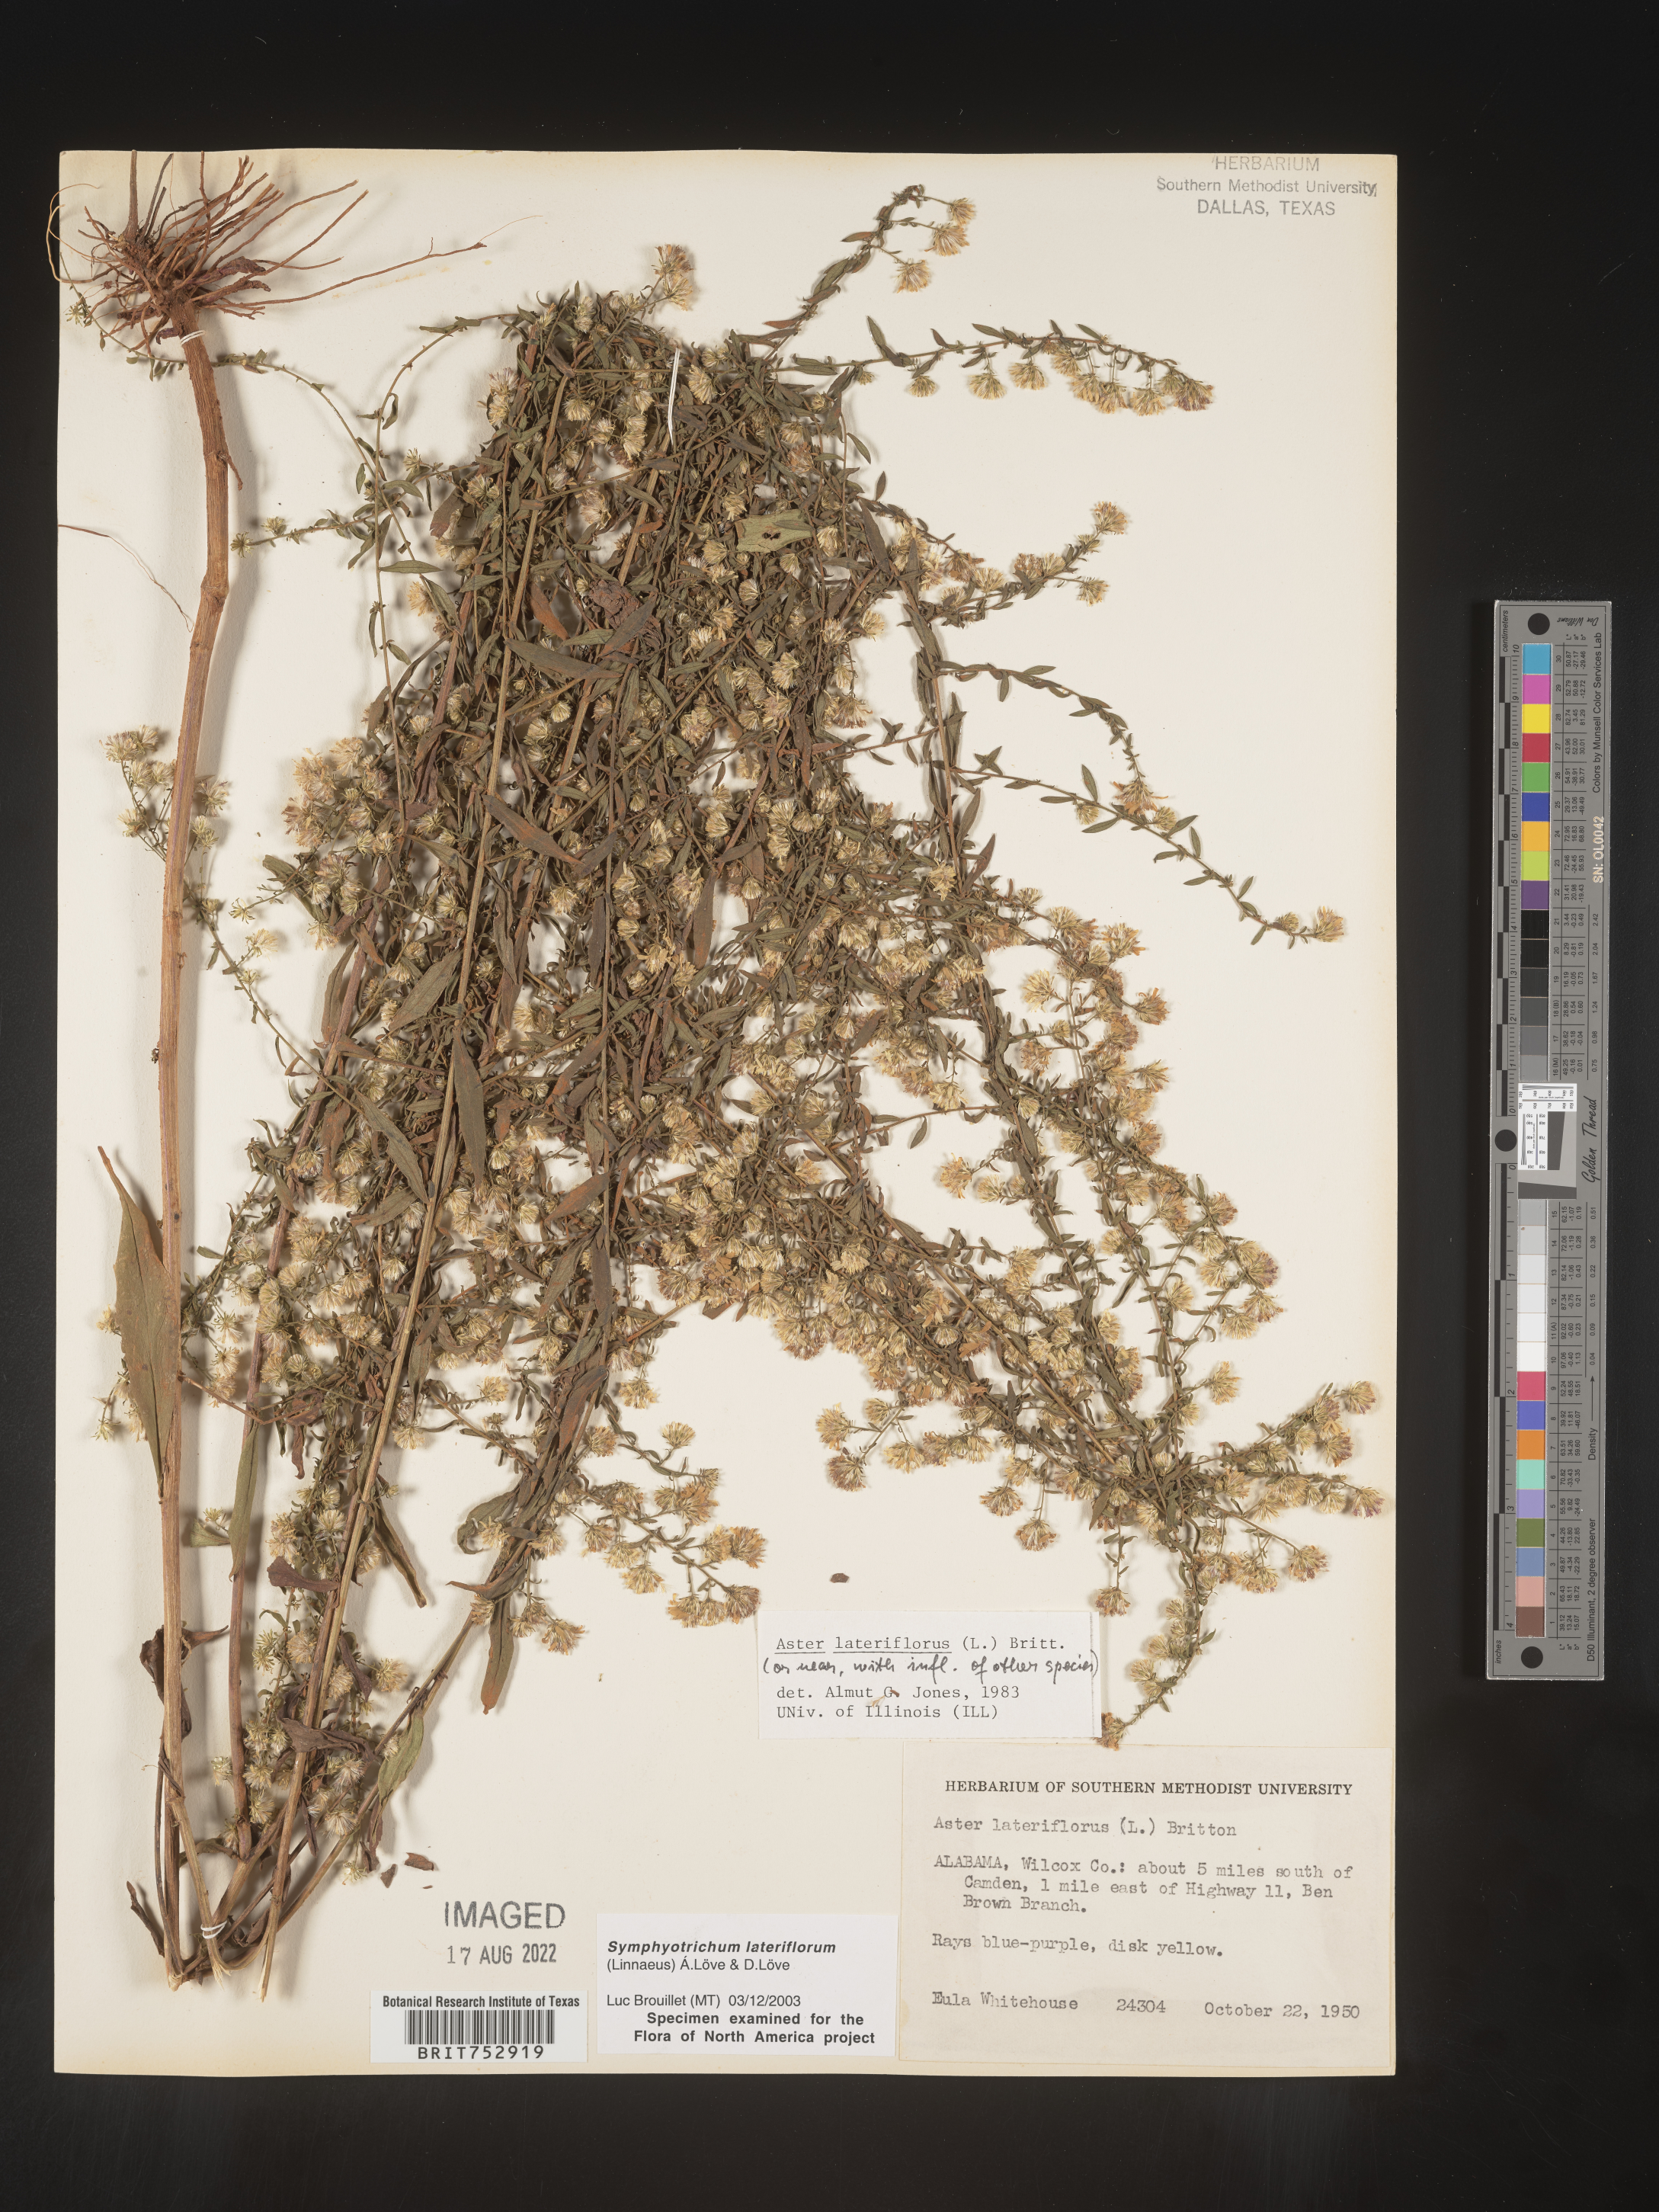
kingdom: Plantae
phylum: Tracheophyta
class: Magnoliopsida
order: Asterales
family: Asteraceae
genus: Symphyotrichum
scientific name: Symphyotrichum lateriflorum
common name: Calico aster
